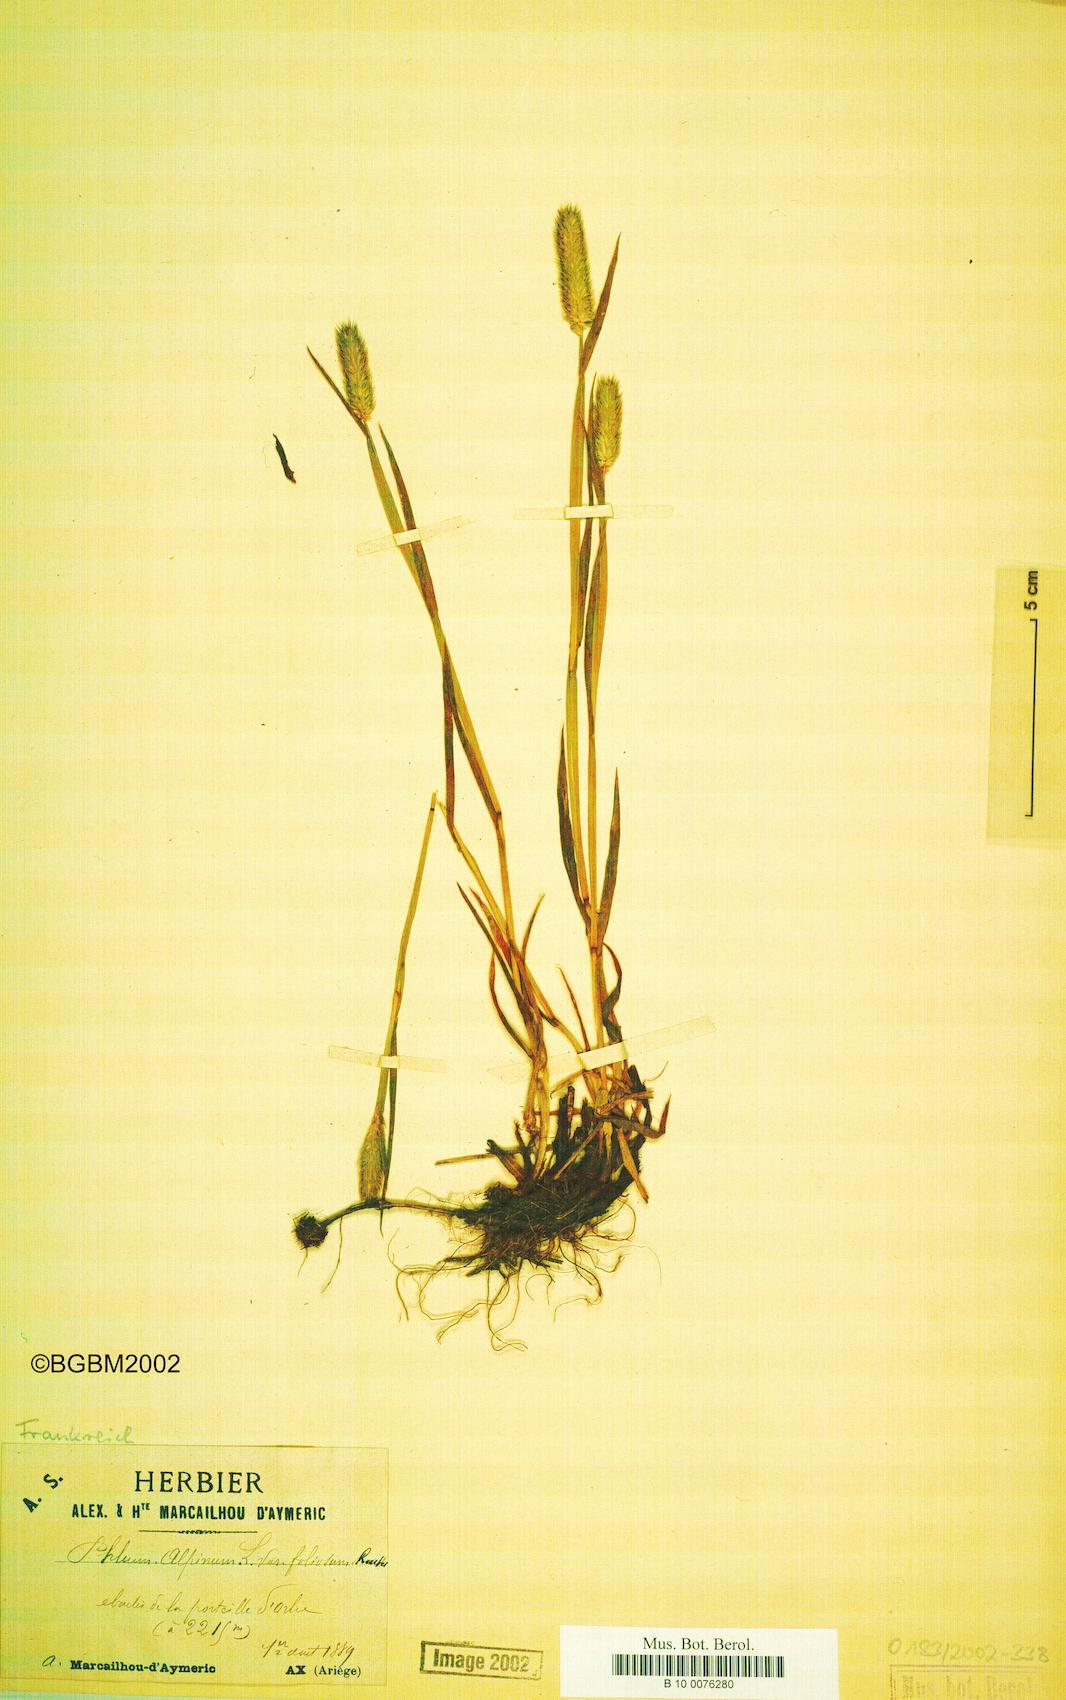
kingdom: Plantae
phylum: Tracheophyta
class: Liliopsida
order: Poales
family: Poaceae
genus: Phleum
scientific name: Phleum alpinum
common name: Alpine cat's-tail
